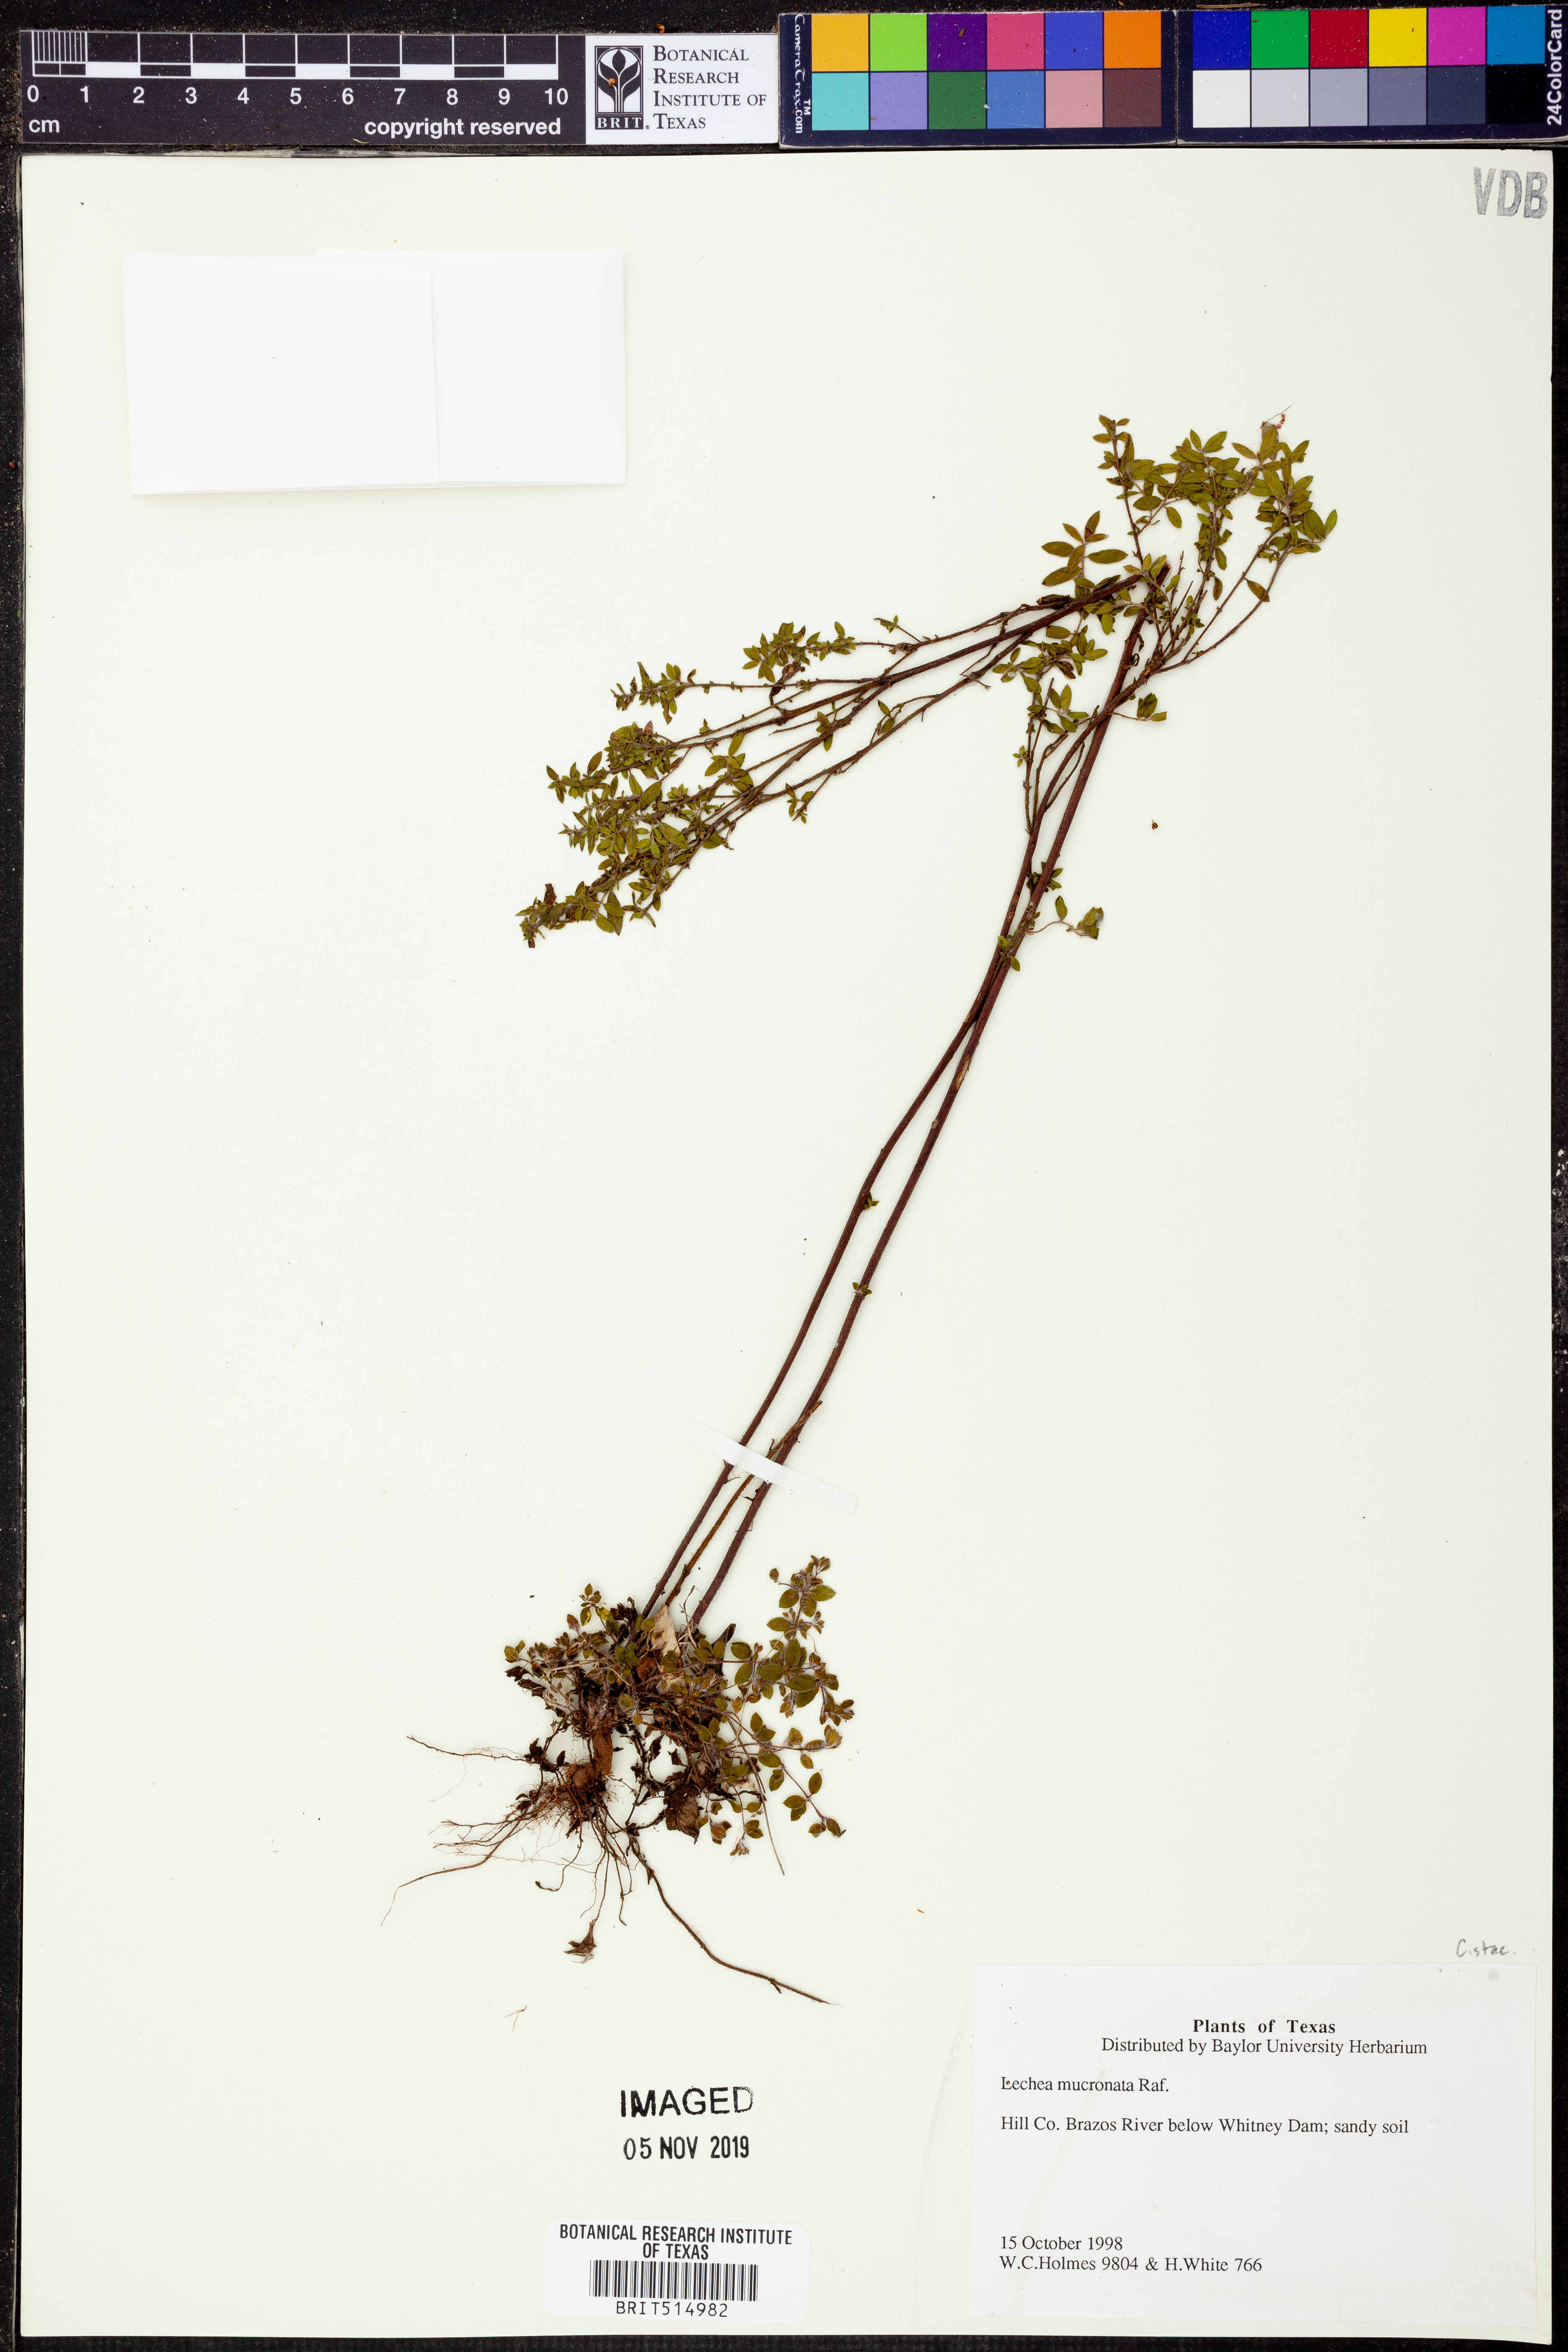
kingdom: Plantae
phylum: Tracheophyta
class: Magnoliopsida
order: Malvales
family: Cistaceae
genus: Lechea
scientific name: Lechea mucronata
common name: Hairy pinweed
